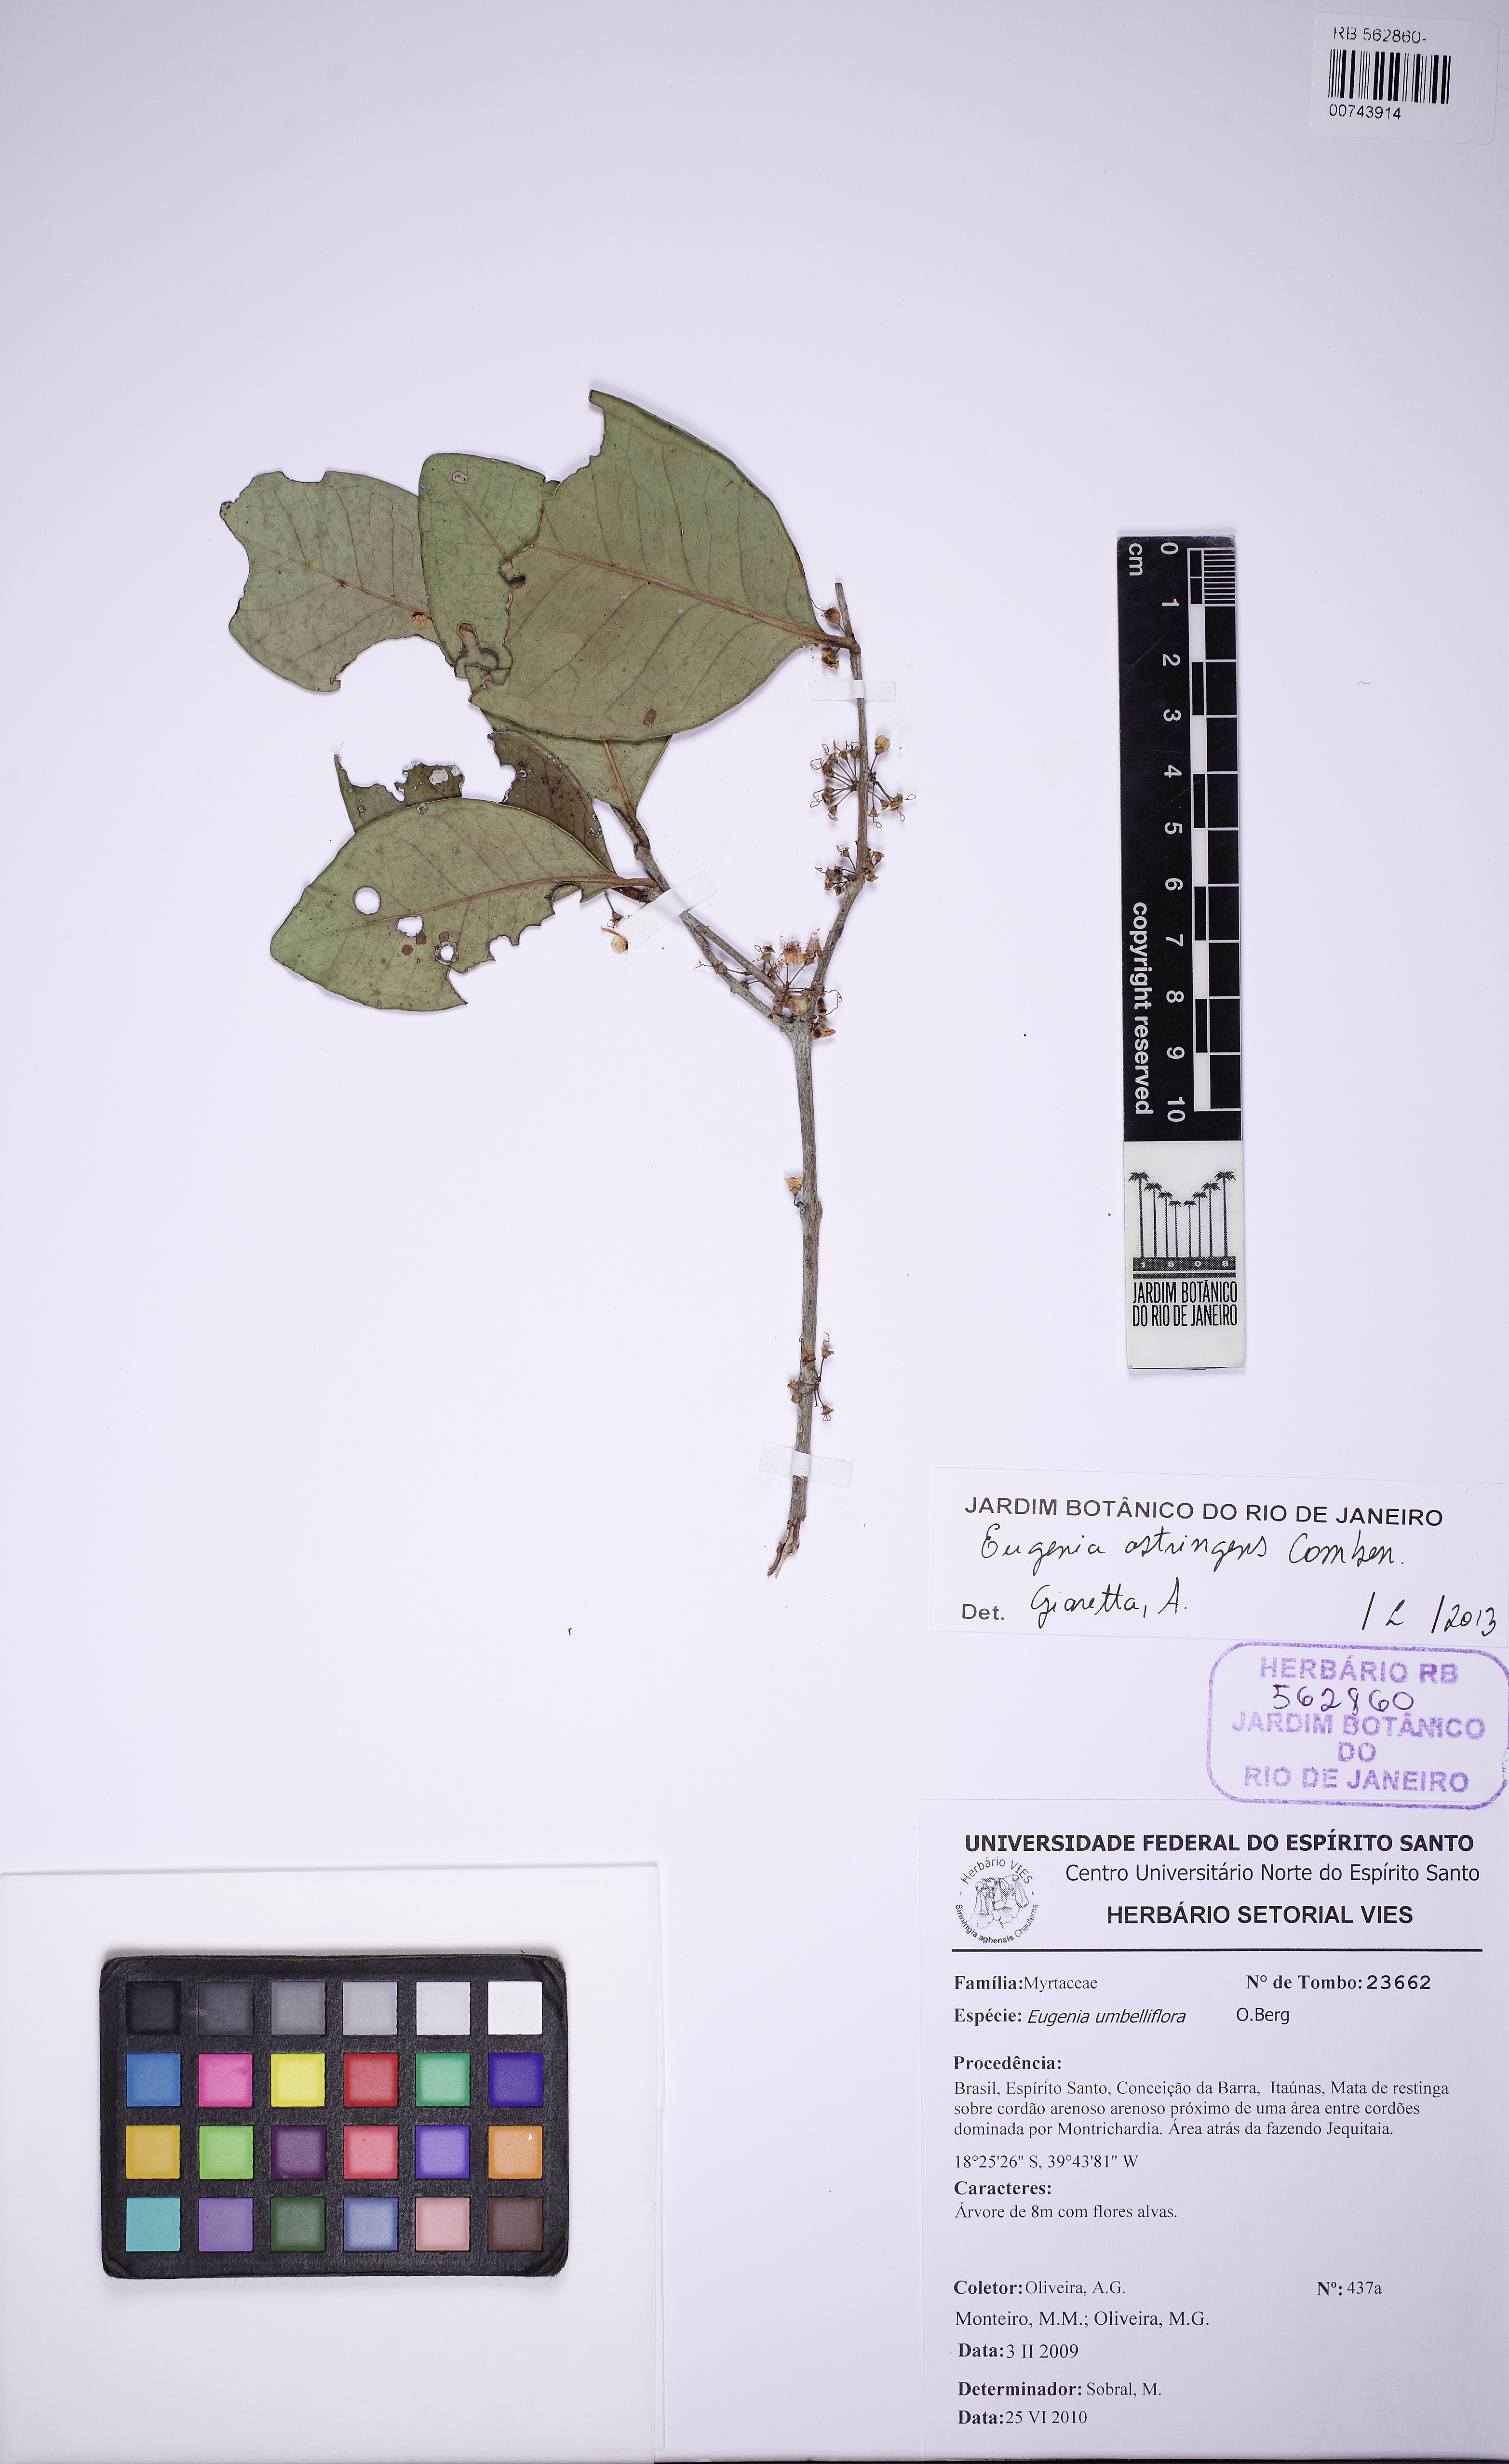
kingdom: Plantae
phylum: Tracheophyta
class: Magnoliopsida
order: Myrtales
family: Myrtaceae
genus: Eugenia
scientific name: Eugenia astringens
